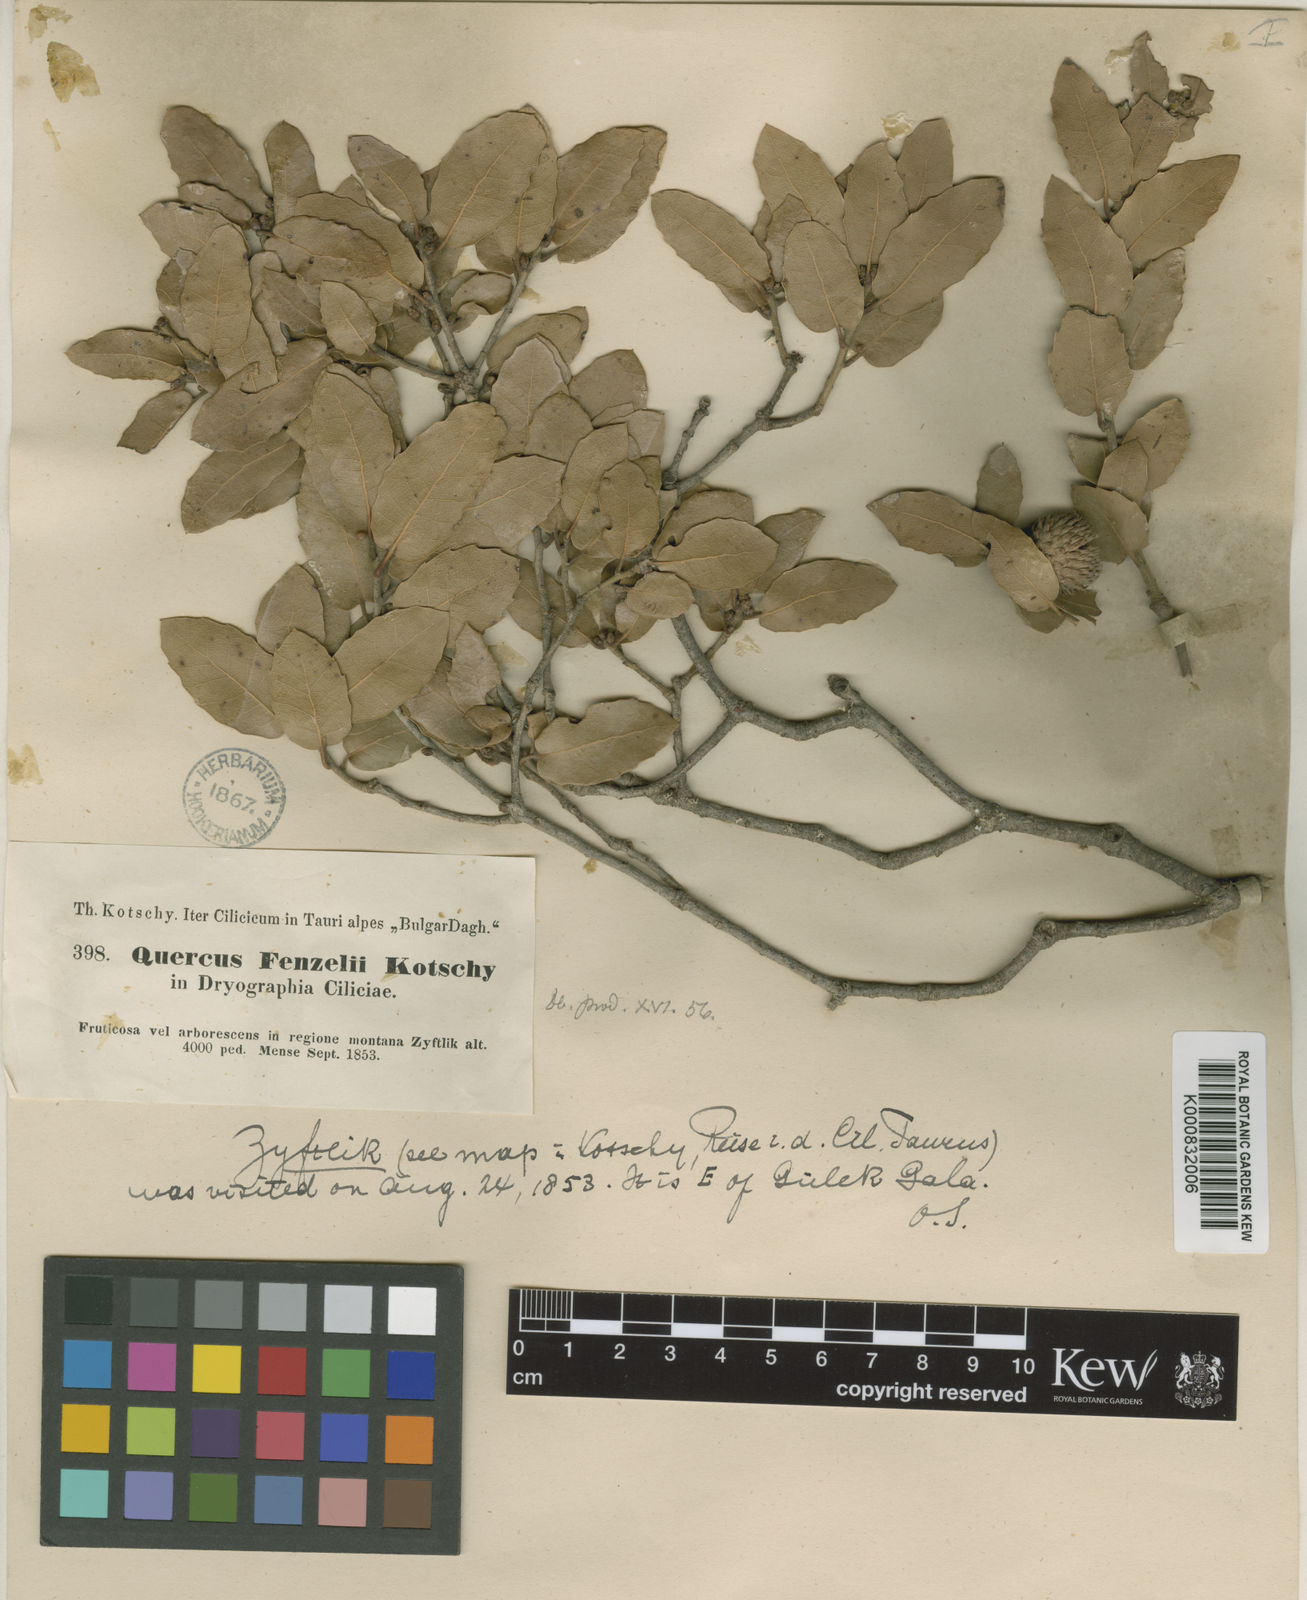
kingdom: Plantae
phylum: Tracheophyta
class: Magnoliopsida
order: Fagales
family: Fagaceae
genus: Quercus
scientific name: Quercus coccifera
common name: Kermes oak
